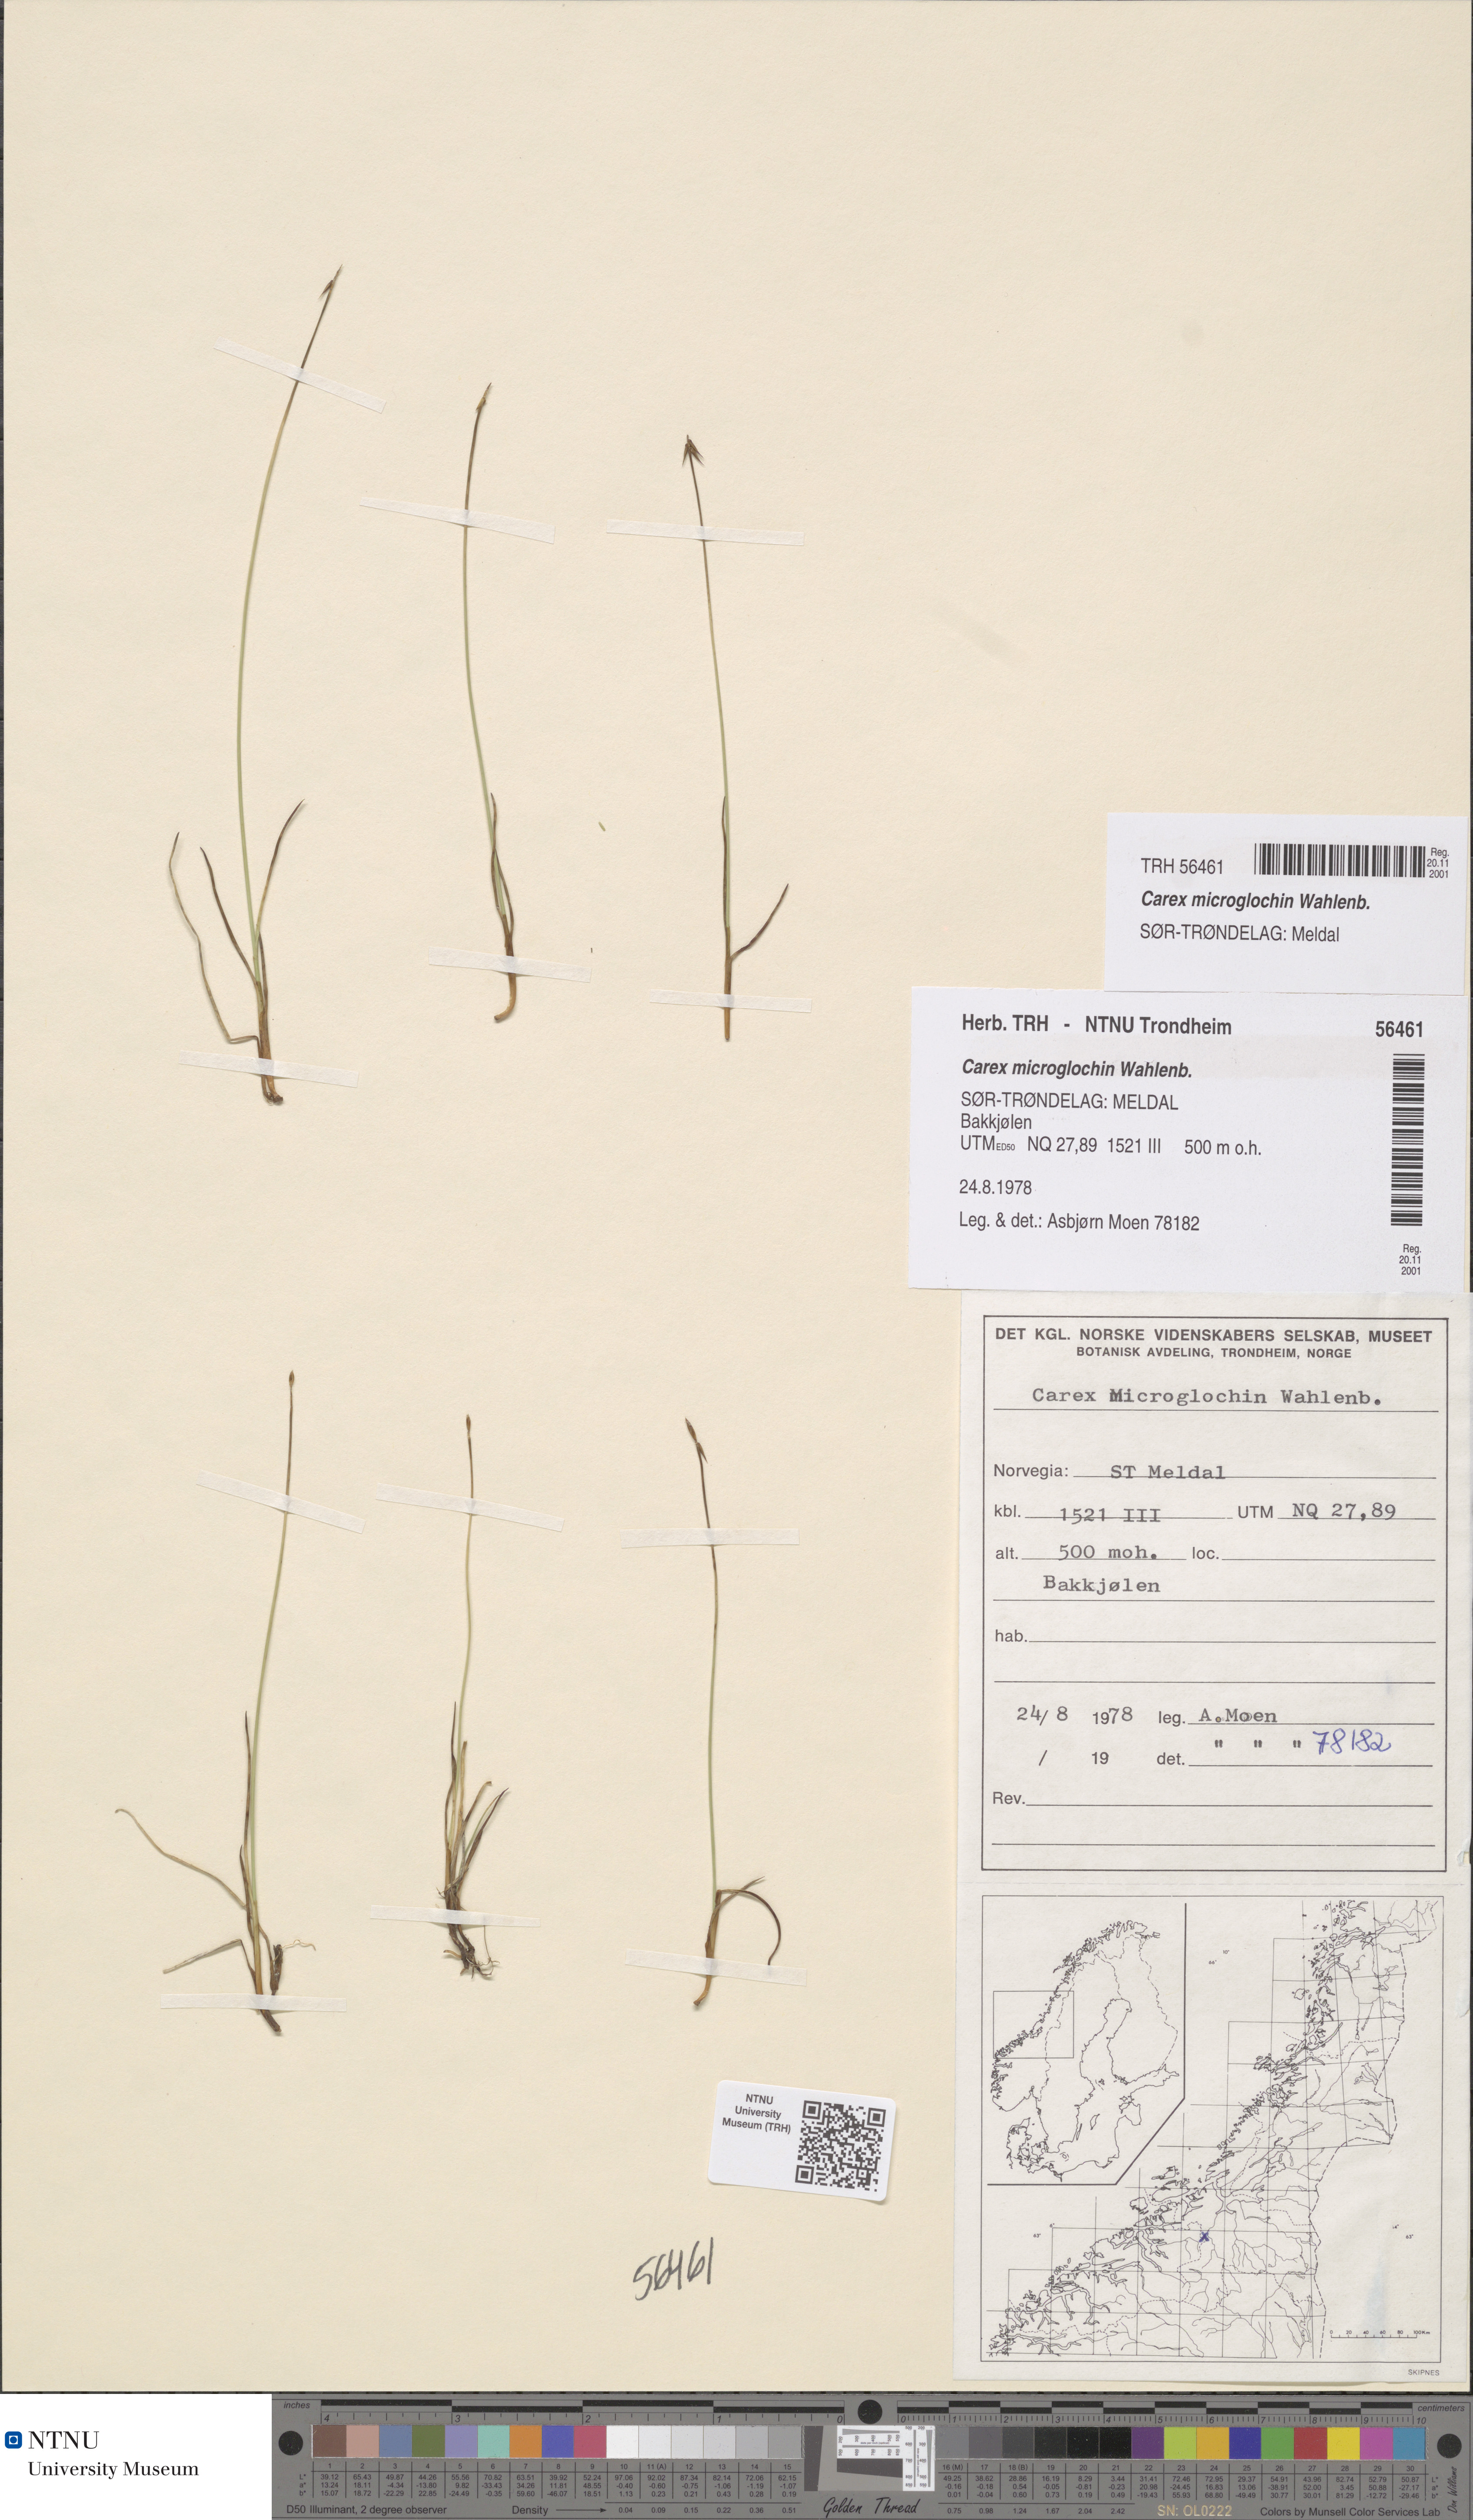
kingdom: Plantae
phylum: Tracheophyta
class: Liliopsida
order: Poales
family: Cyperaceae
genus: Carex
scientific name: Carex microglochin
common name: Bristle sedge
